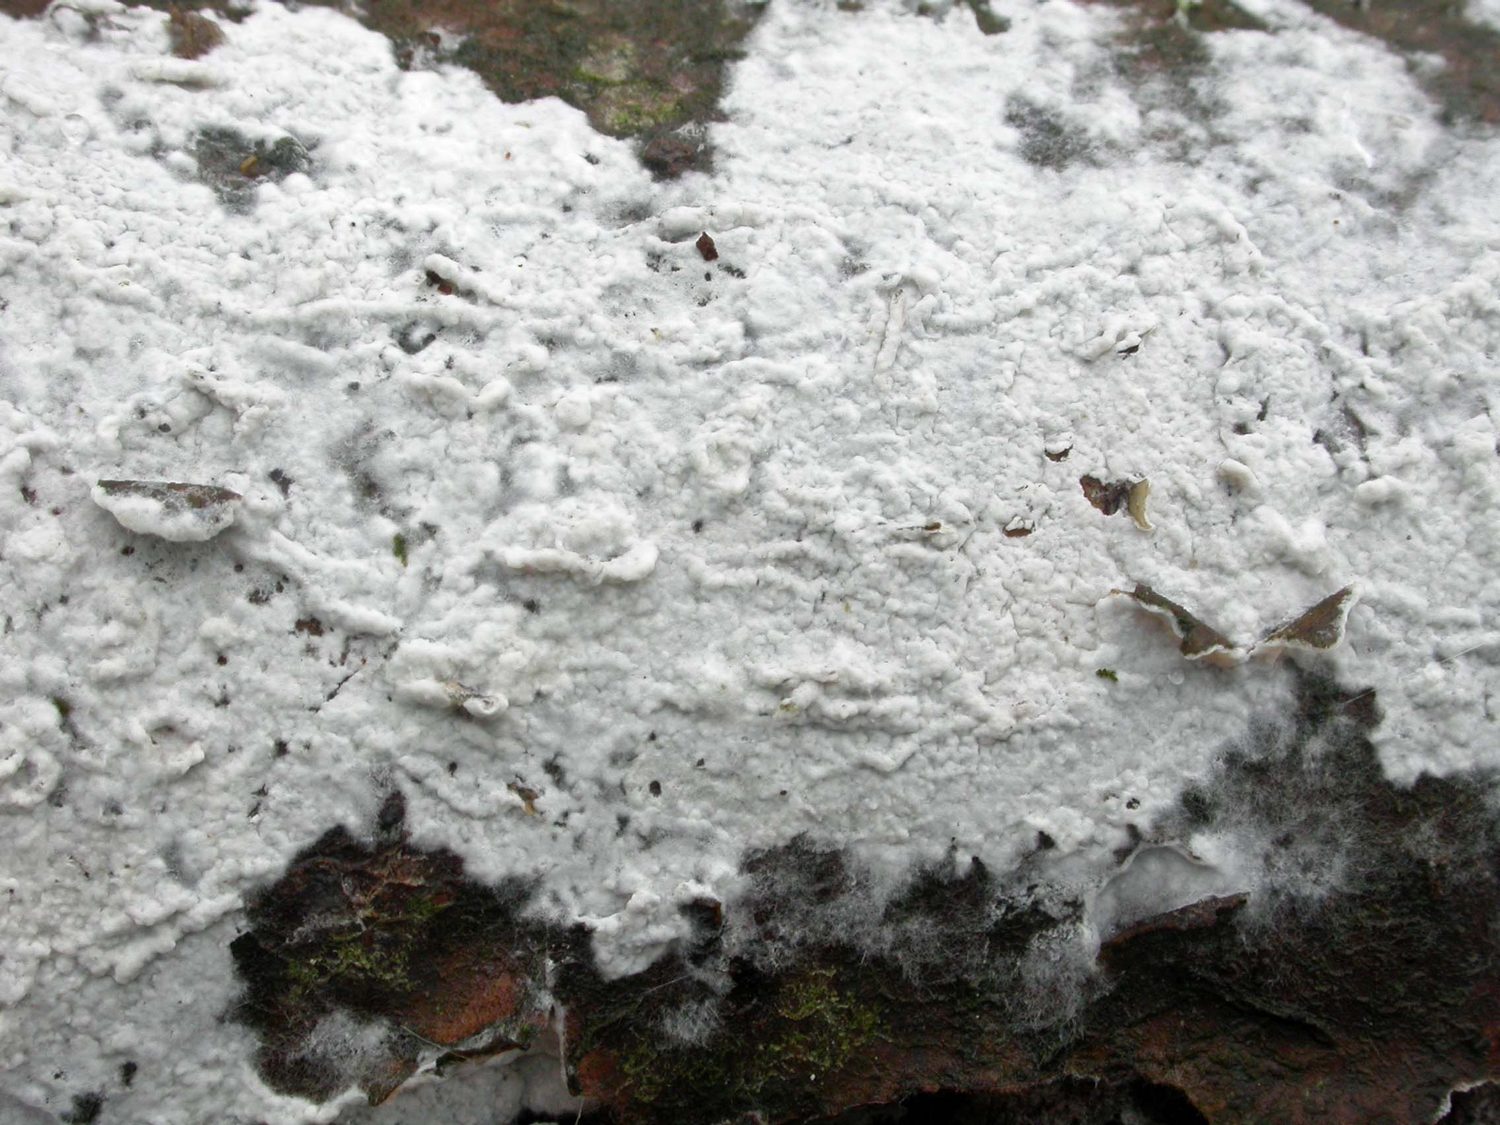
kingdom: Fungi
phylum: Basidiomycota
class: Agaricomycetes
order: Atheliales
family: Atheliaceae
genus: Athelia
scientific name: Athelia epiphylla
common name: almindelig barkhinde
